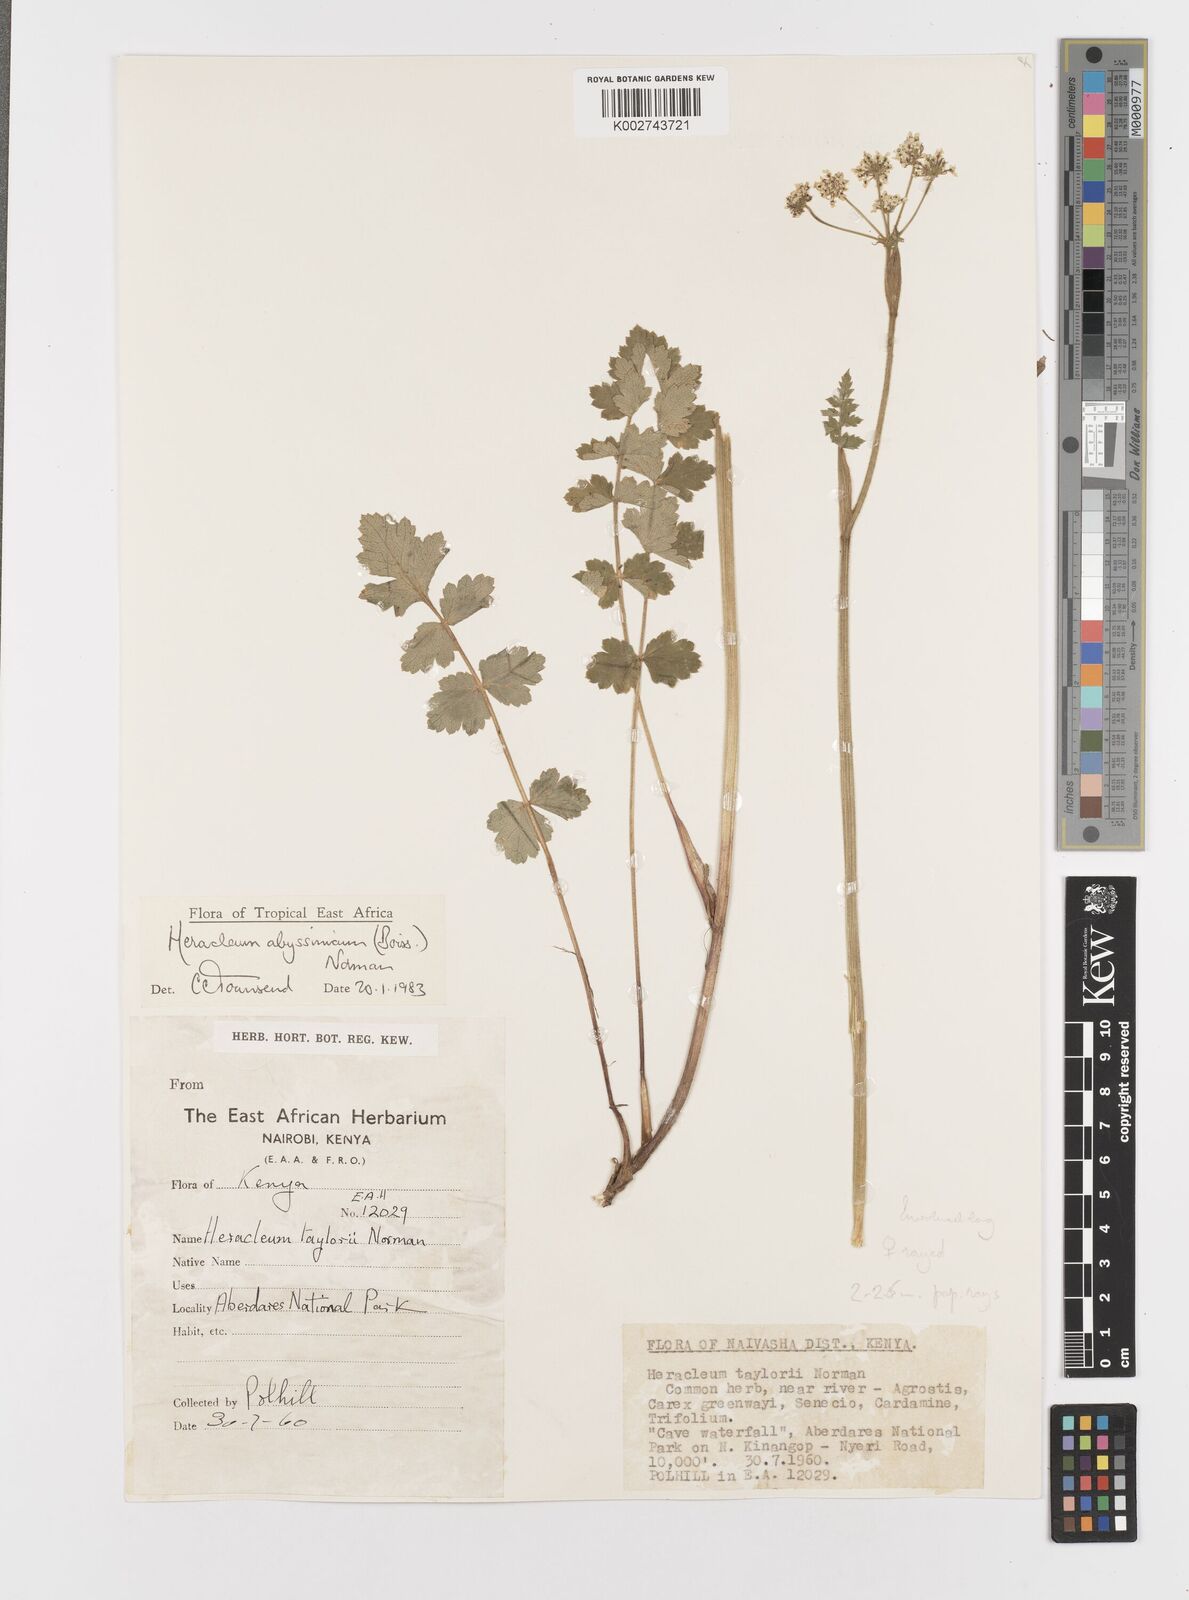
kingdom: Plantae
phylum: Tracheophyta
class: Magnoliopsida
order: Apiales
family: Apiaceae
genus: Heracleum
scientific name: Heracleum abyssinicum
